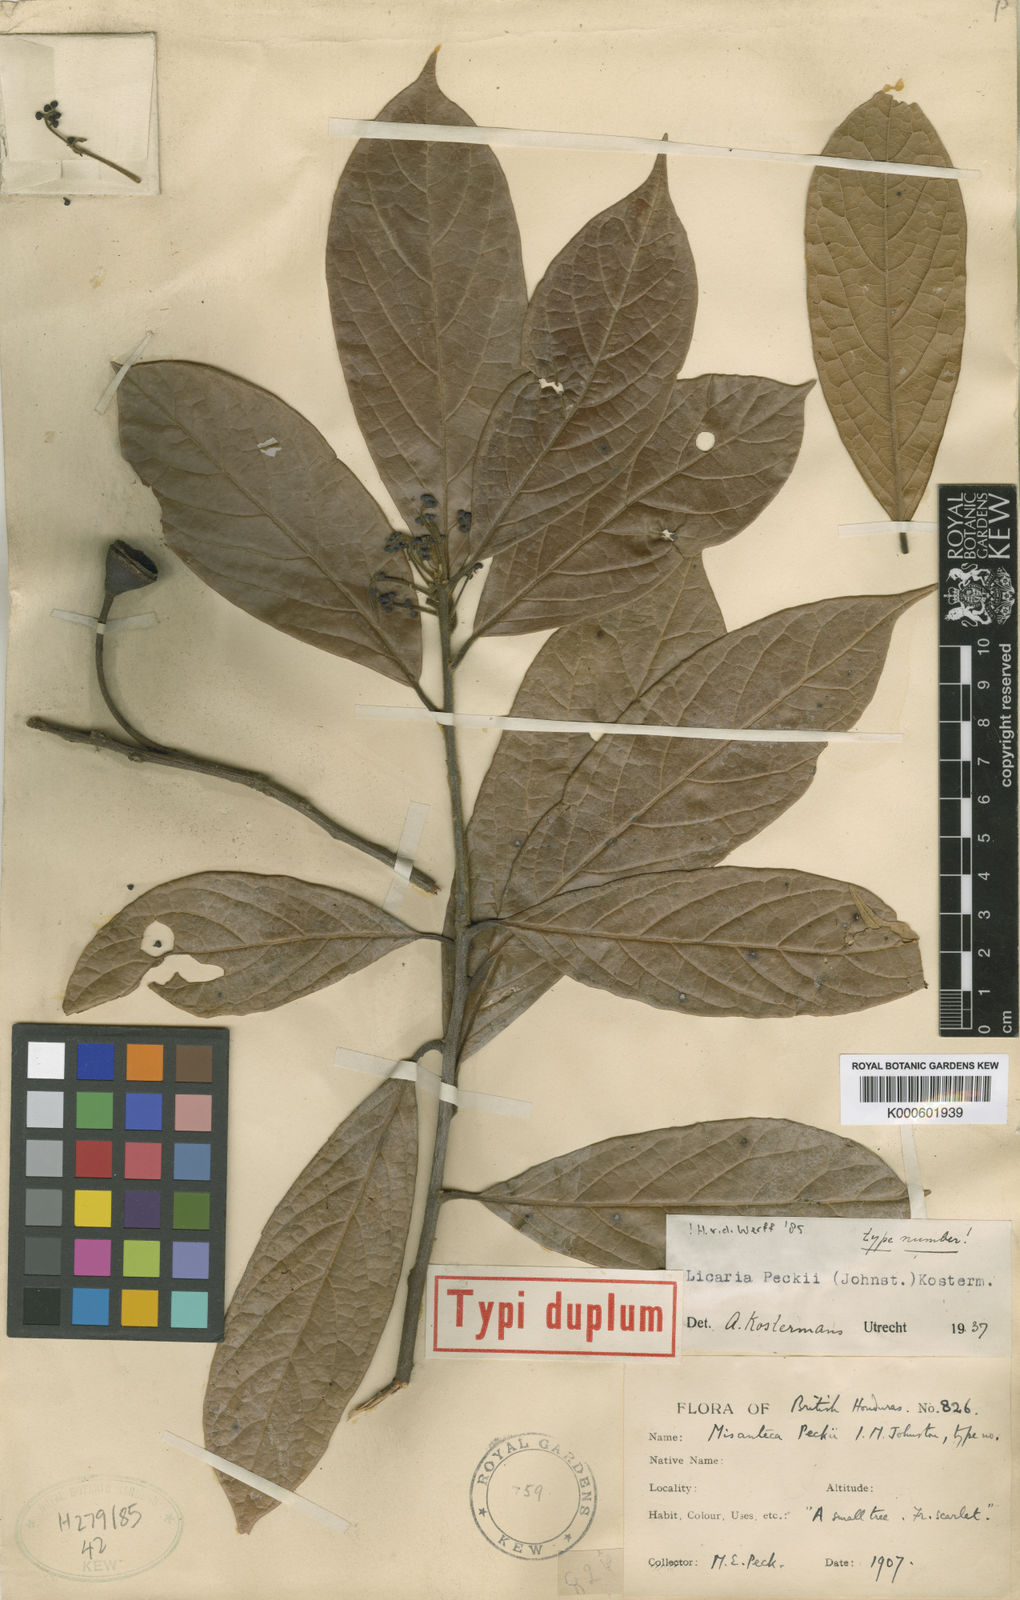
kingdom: Plantae
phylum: Tracheophyta
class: Magnoliopsida
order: Laurales
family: Lauraceae
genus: Licaria
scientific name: Licaria peckii
